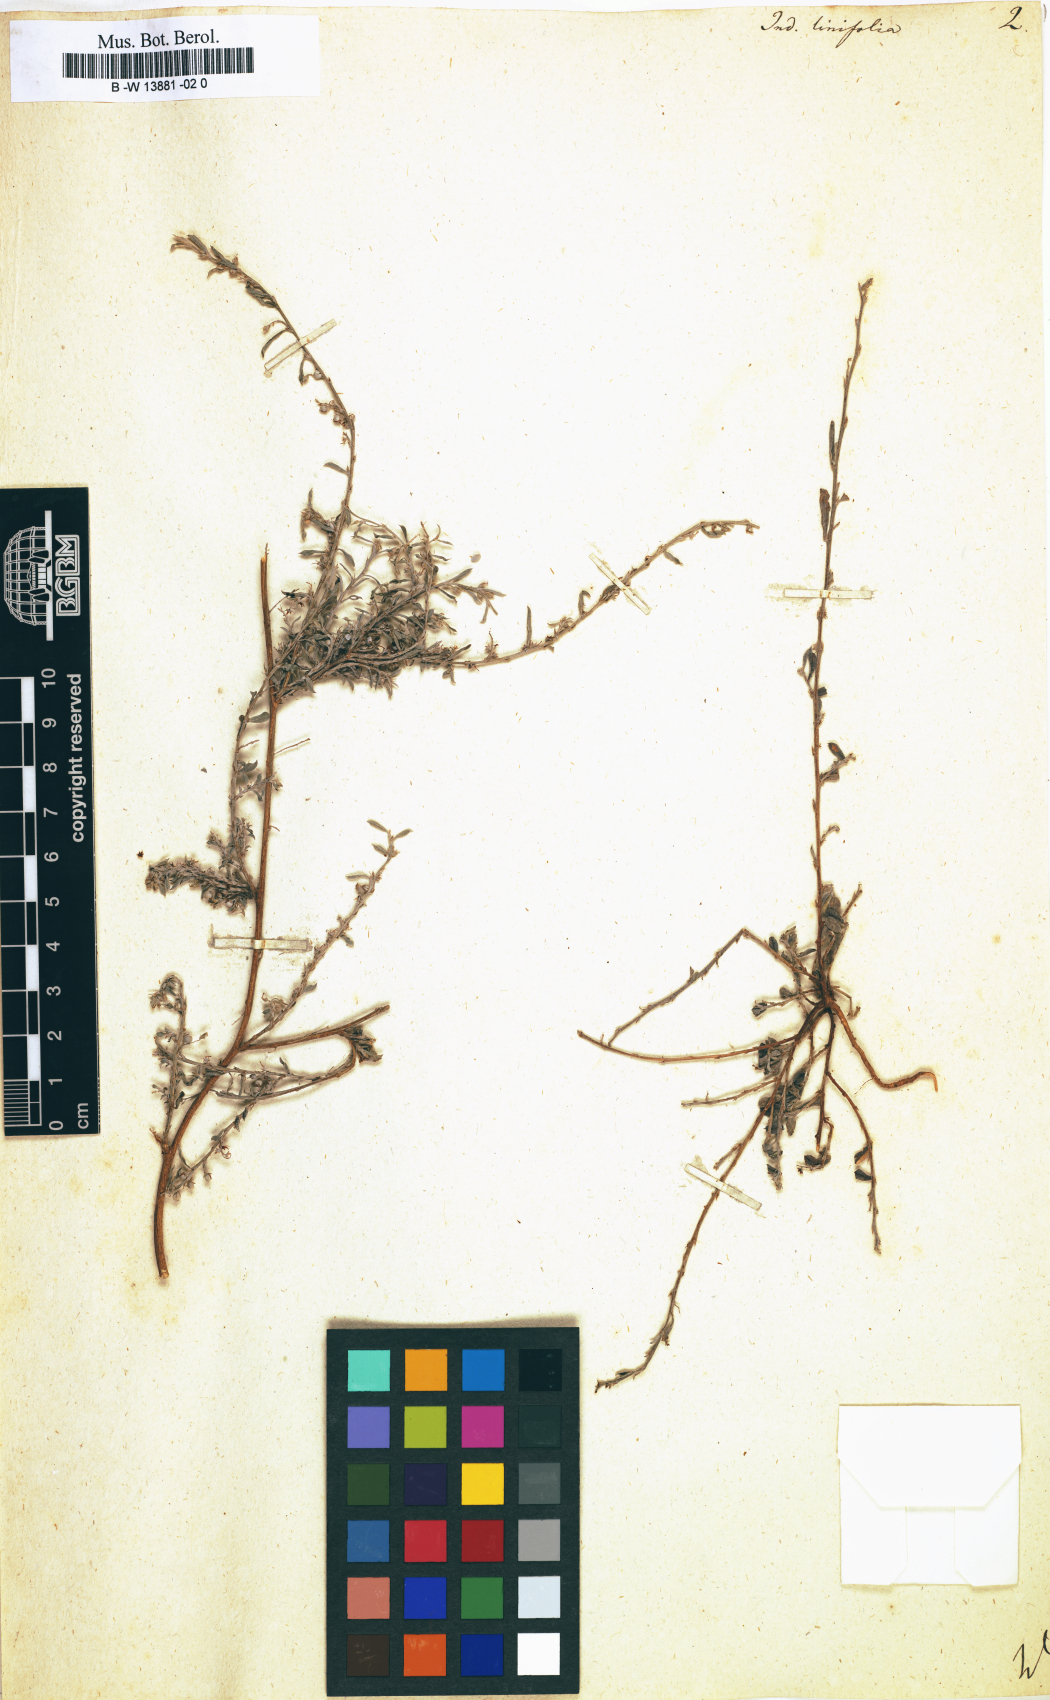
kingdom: Plantae
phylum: Tracheophyta
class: Magnoliopsida
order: Fabales
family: Fabaceae
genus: Indigofera
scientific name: Indigofera linifolia
